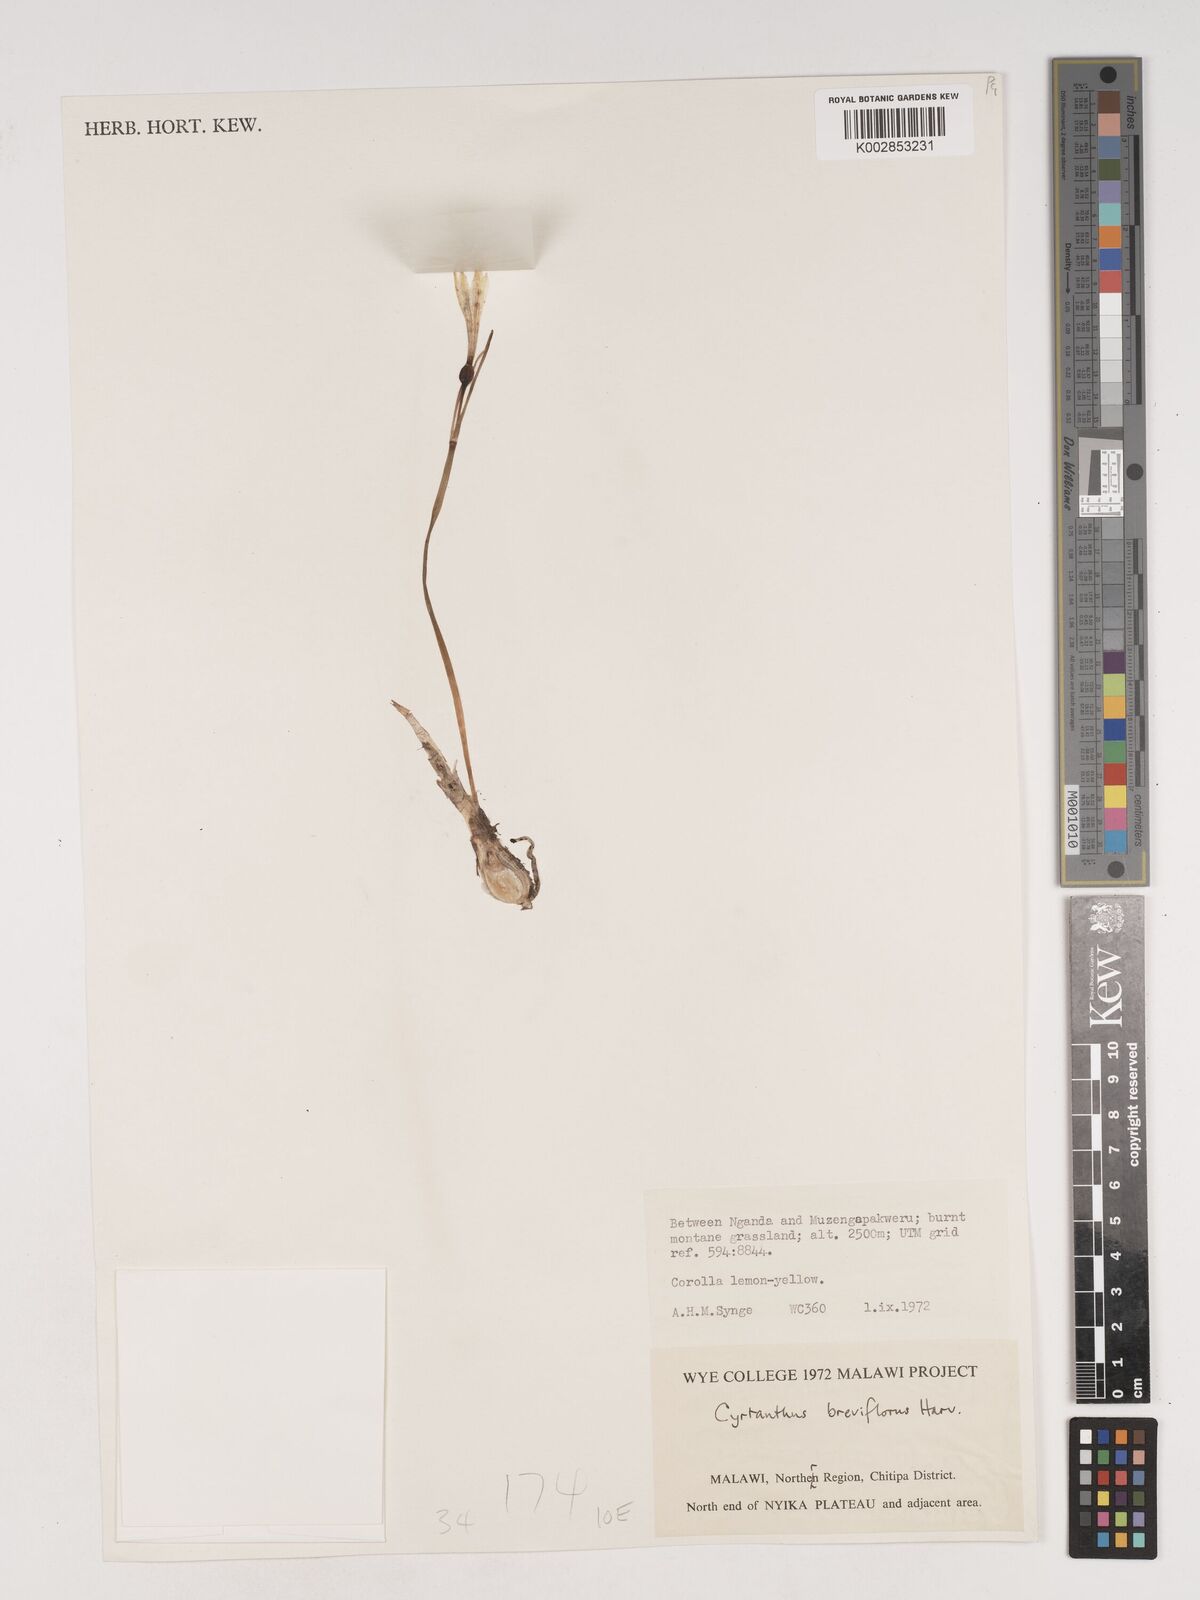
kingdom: Plantae
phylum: Tracheophyta
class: Liliopsida
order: Asparagales
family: Amaryllidaceae
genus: Cyrtanthus
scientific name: Cyrtanthus breviflorus
